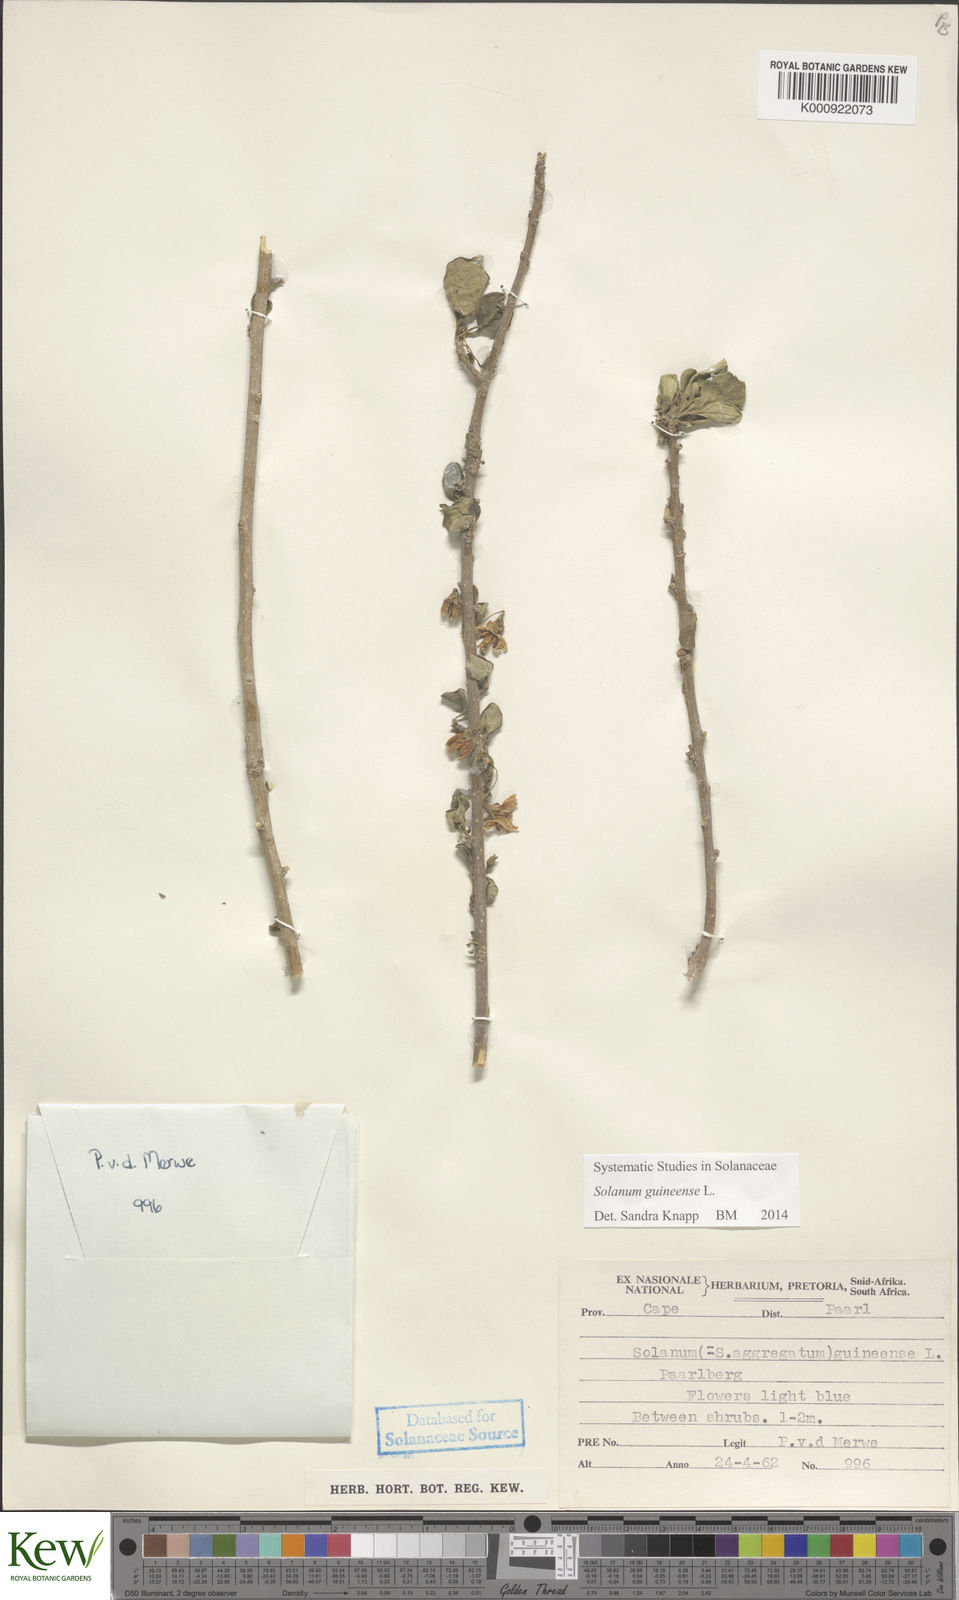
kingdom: Plantae
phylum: Tracheophyta
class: Magnoliopsida
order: Solanales
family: Solanaceae
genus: Solanum
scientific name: Solanum guineense
